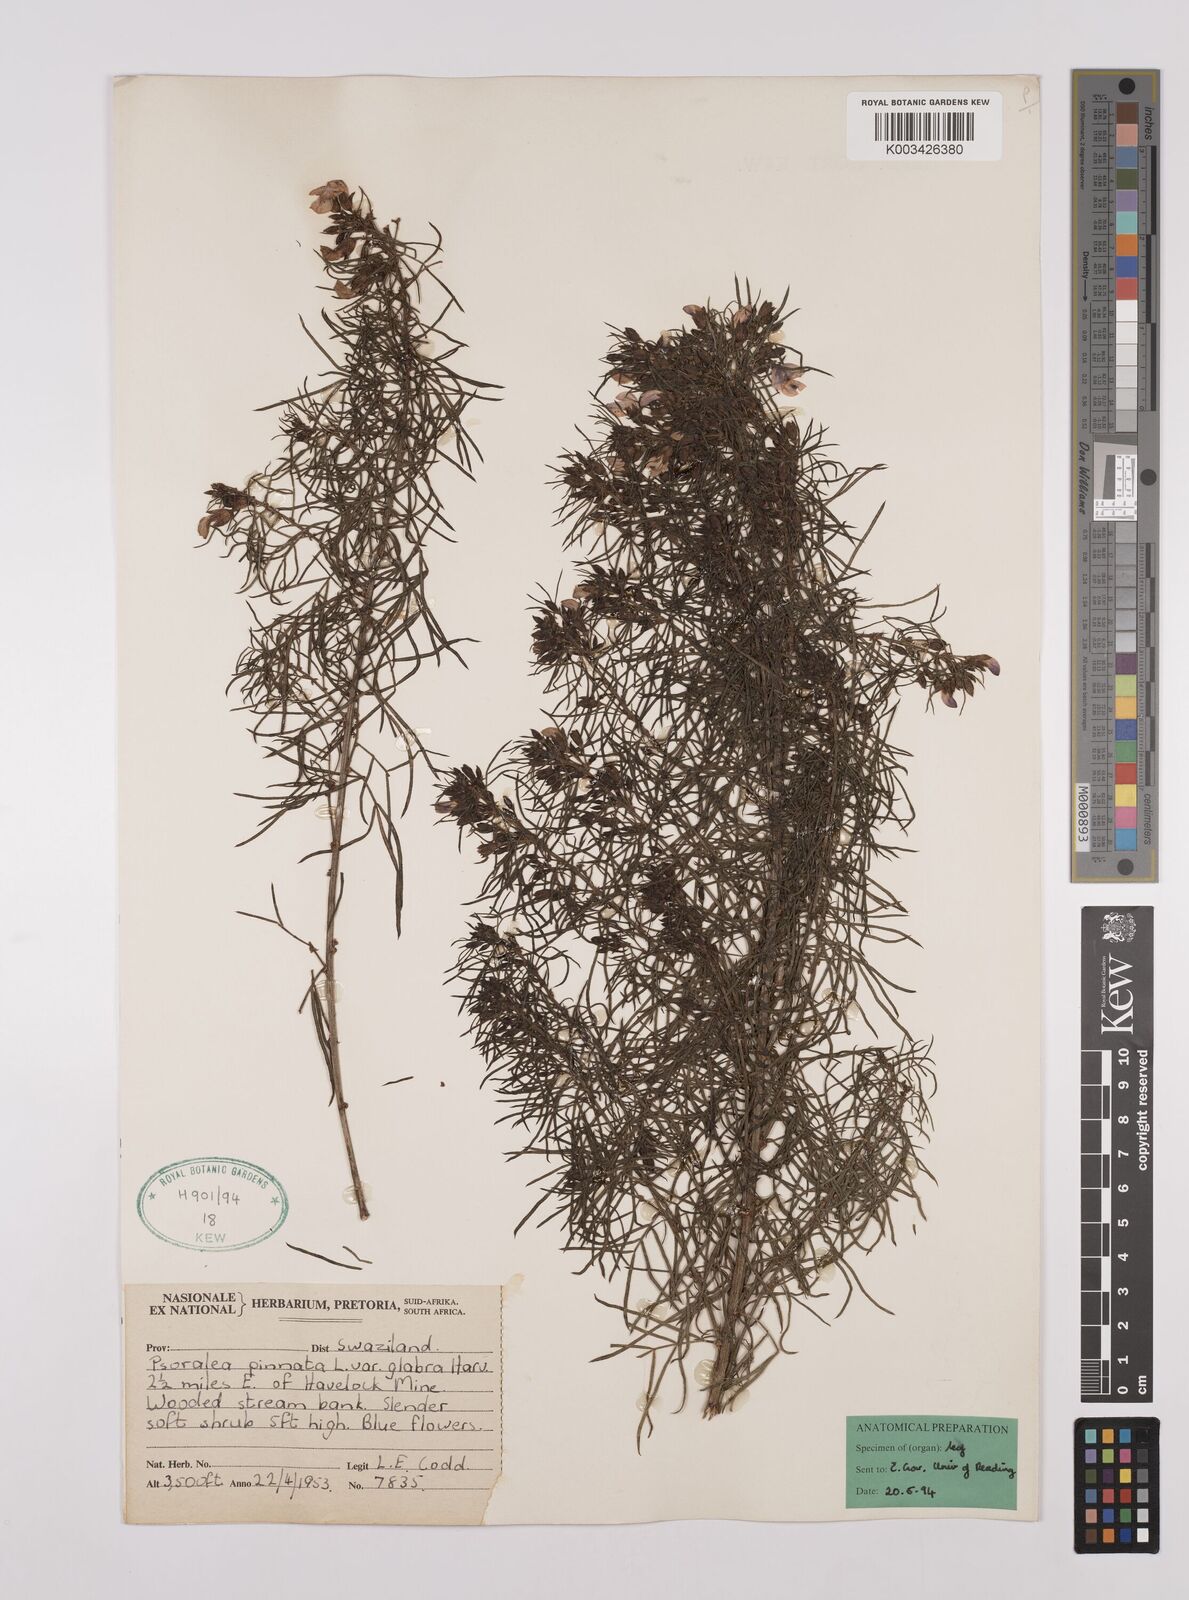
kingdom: Plantae
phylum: Tracheophyta
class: Magnoliopsida
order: Fabales
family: Fabaceae
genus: Psoralea
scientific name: Psoralea rhizotoma
